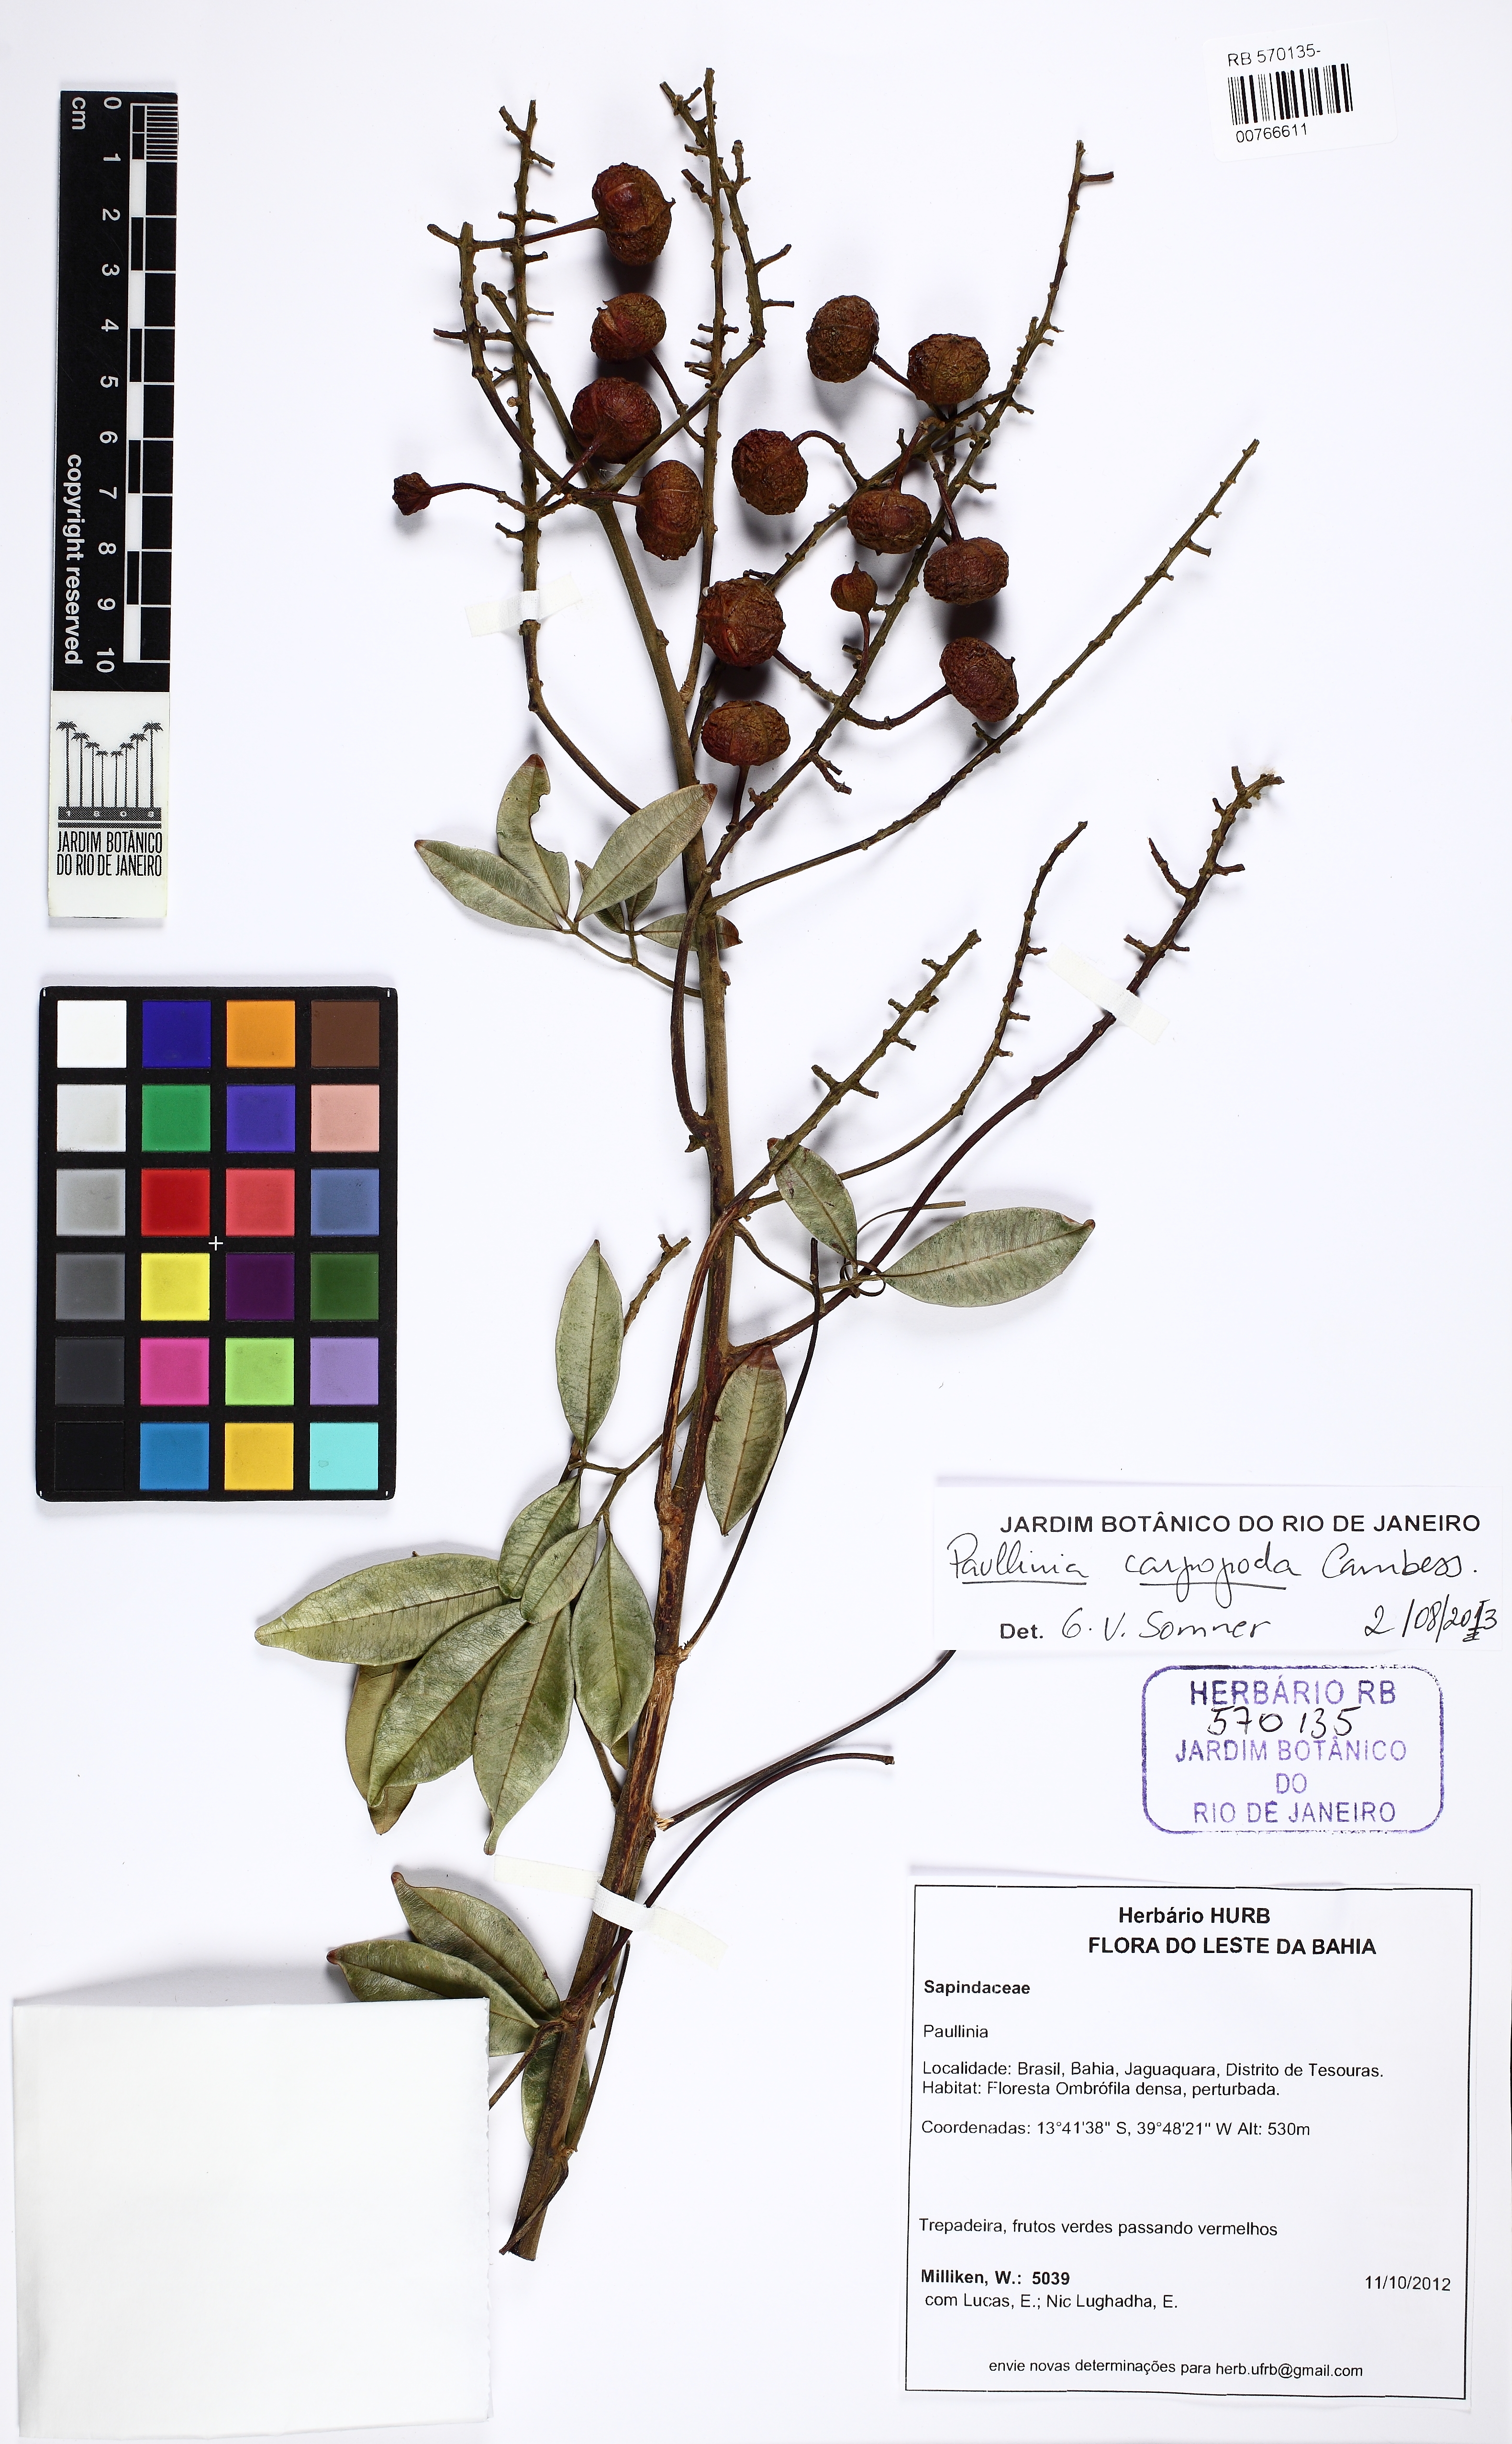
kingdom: Plantae
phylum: Tracheophyta
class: Magnoliopsida
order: Sapindales
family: Sapindaceae
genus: Paullinia
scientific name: Paullinia carpopodea
